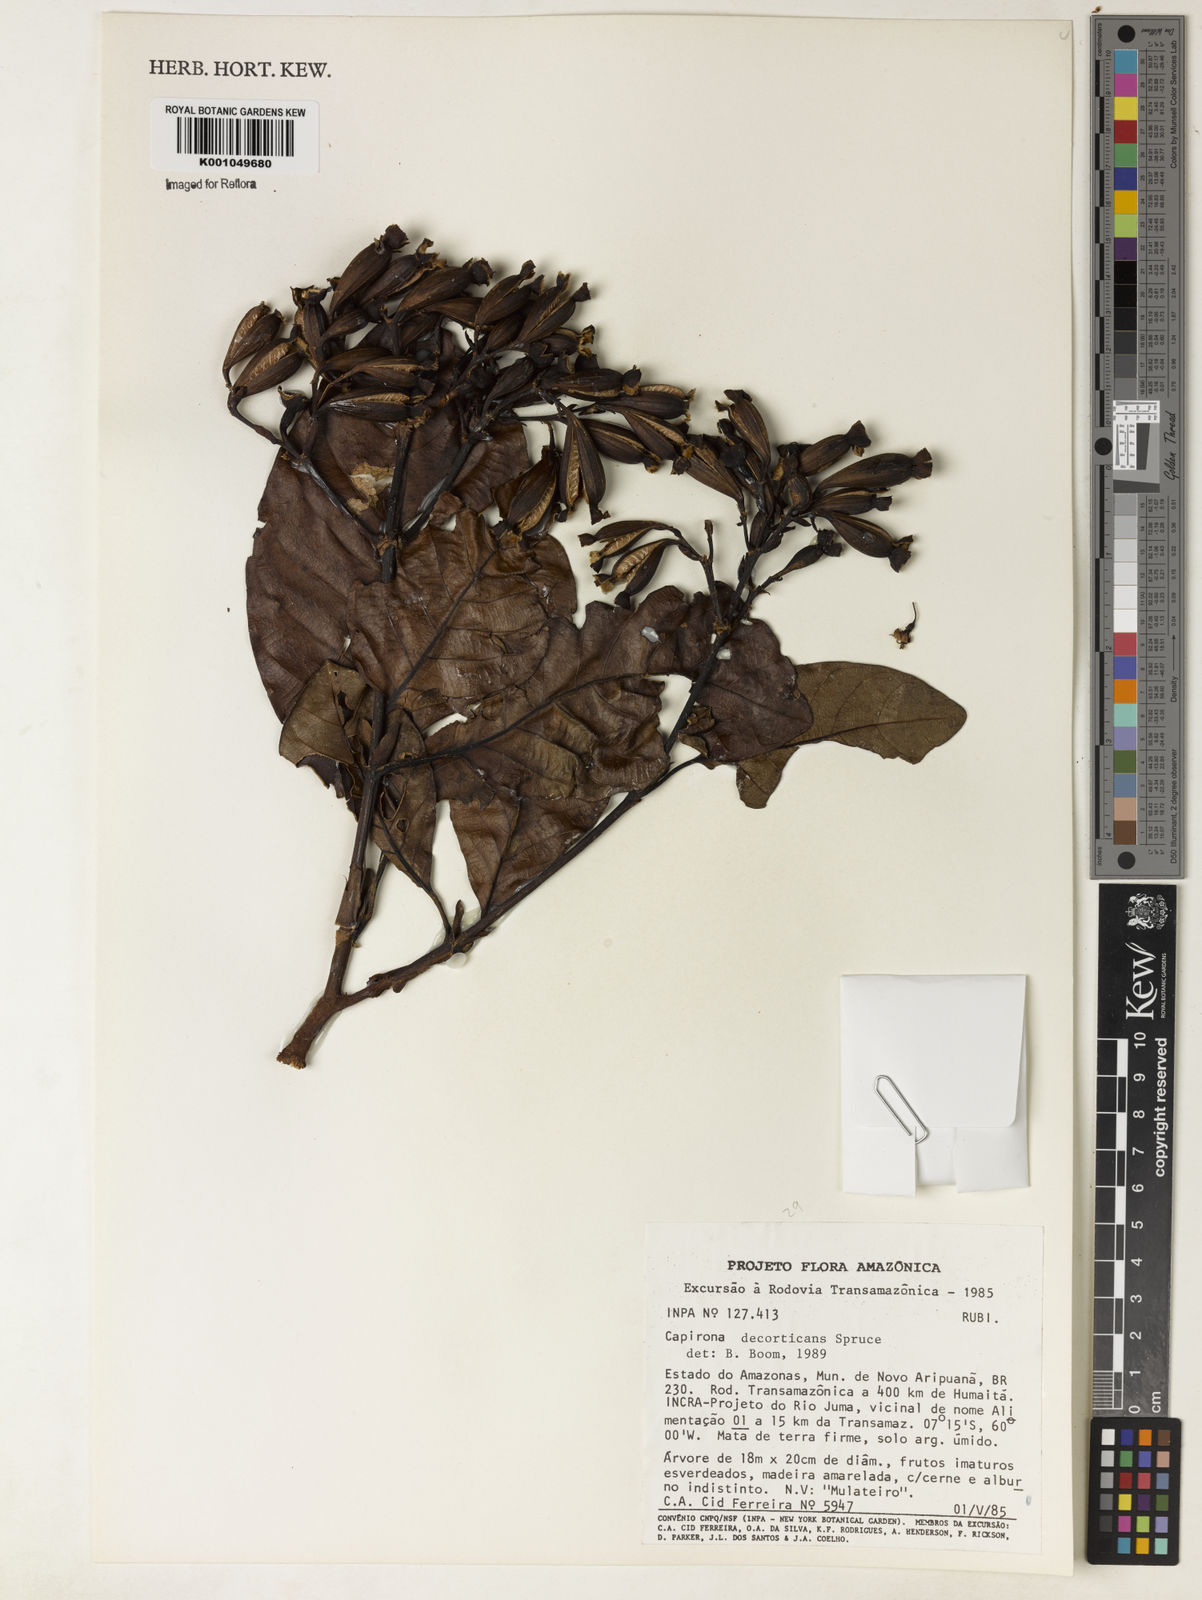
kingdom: Plantae
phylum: Tracheophyta
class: Magnoliopsida
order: Gentianales
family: Rubiaceae
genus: Capirona
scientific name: Capirona macrophylla
